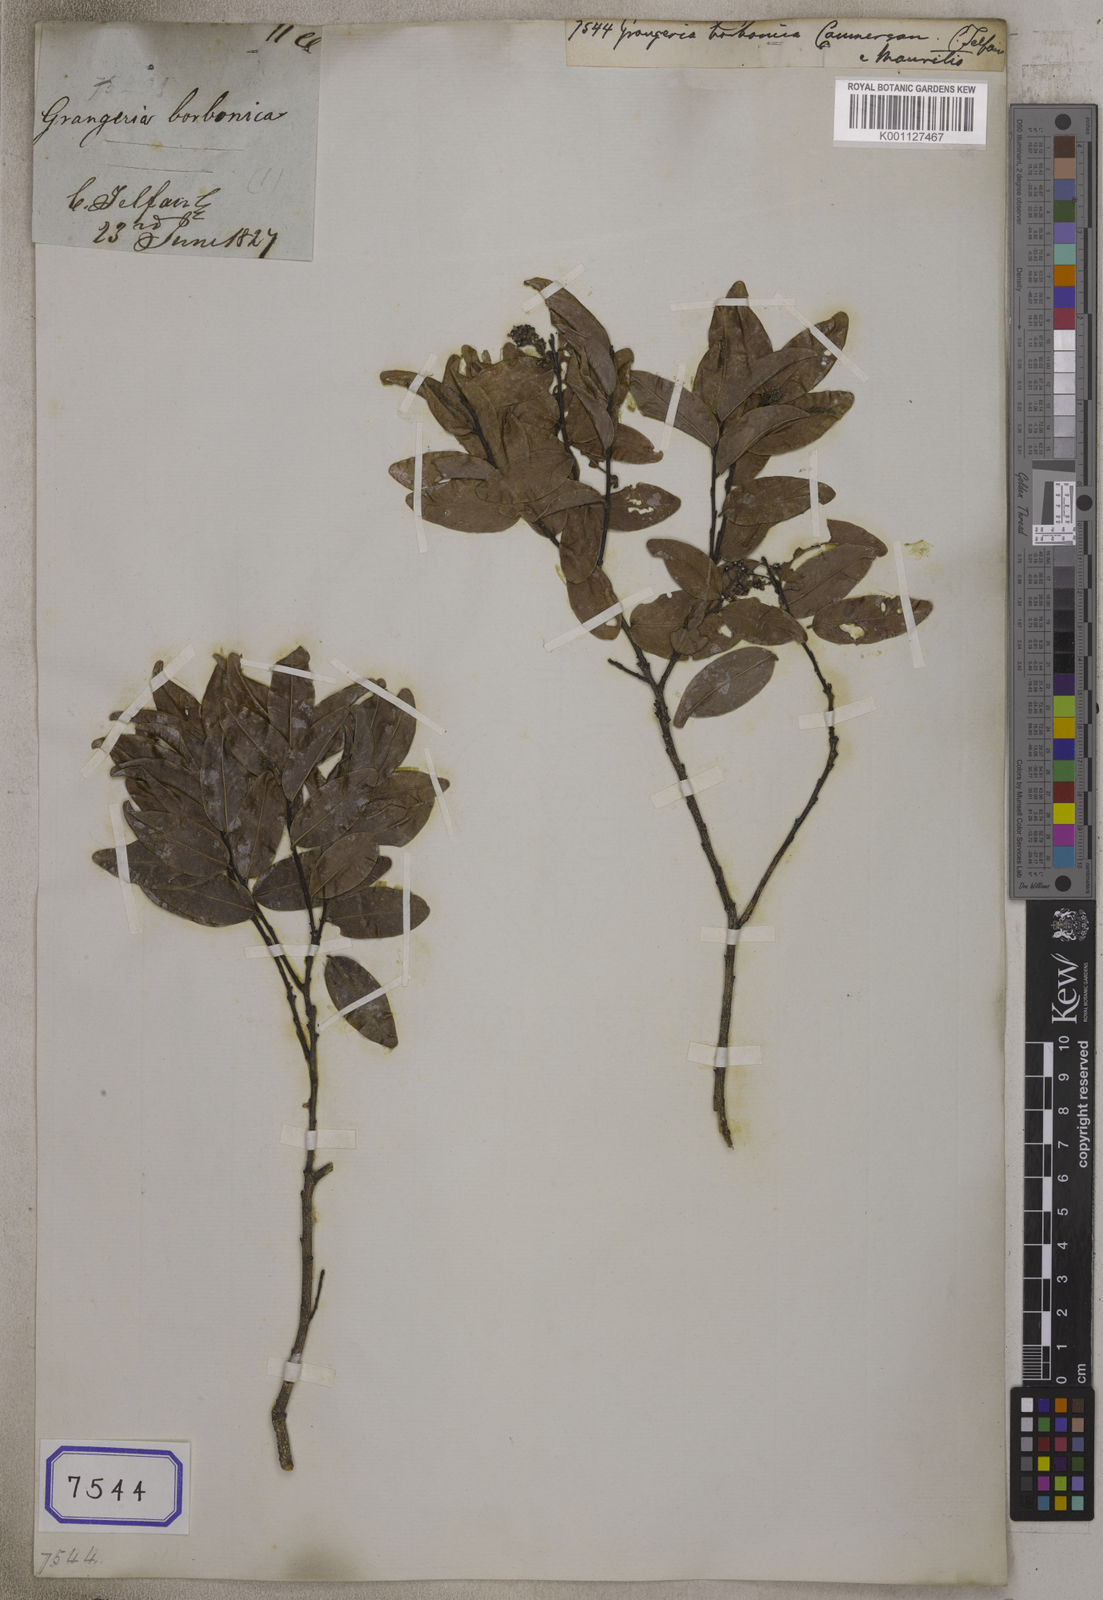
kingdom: Plantae
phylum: Tracheophyta
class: Magnoliopsida
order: Malpighiales
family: Chrysobalanaceae
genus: Grangeria
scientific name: Grangeria borbonica
